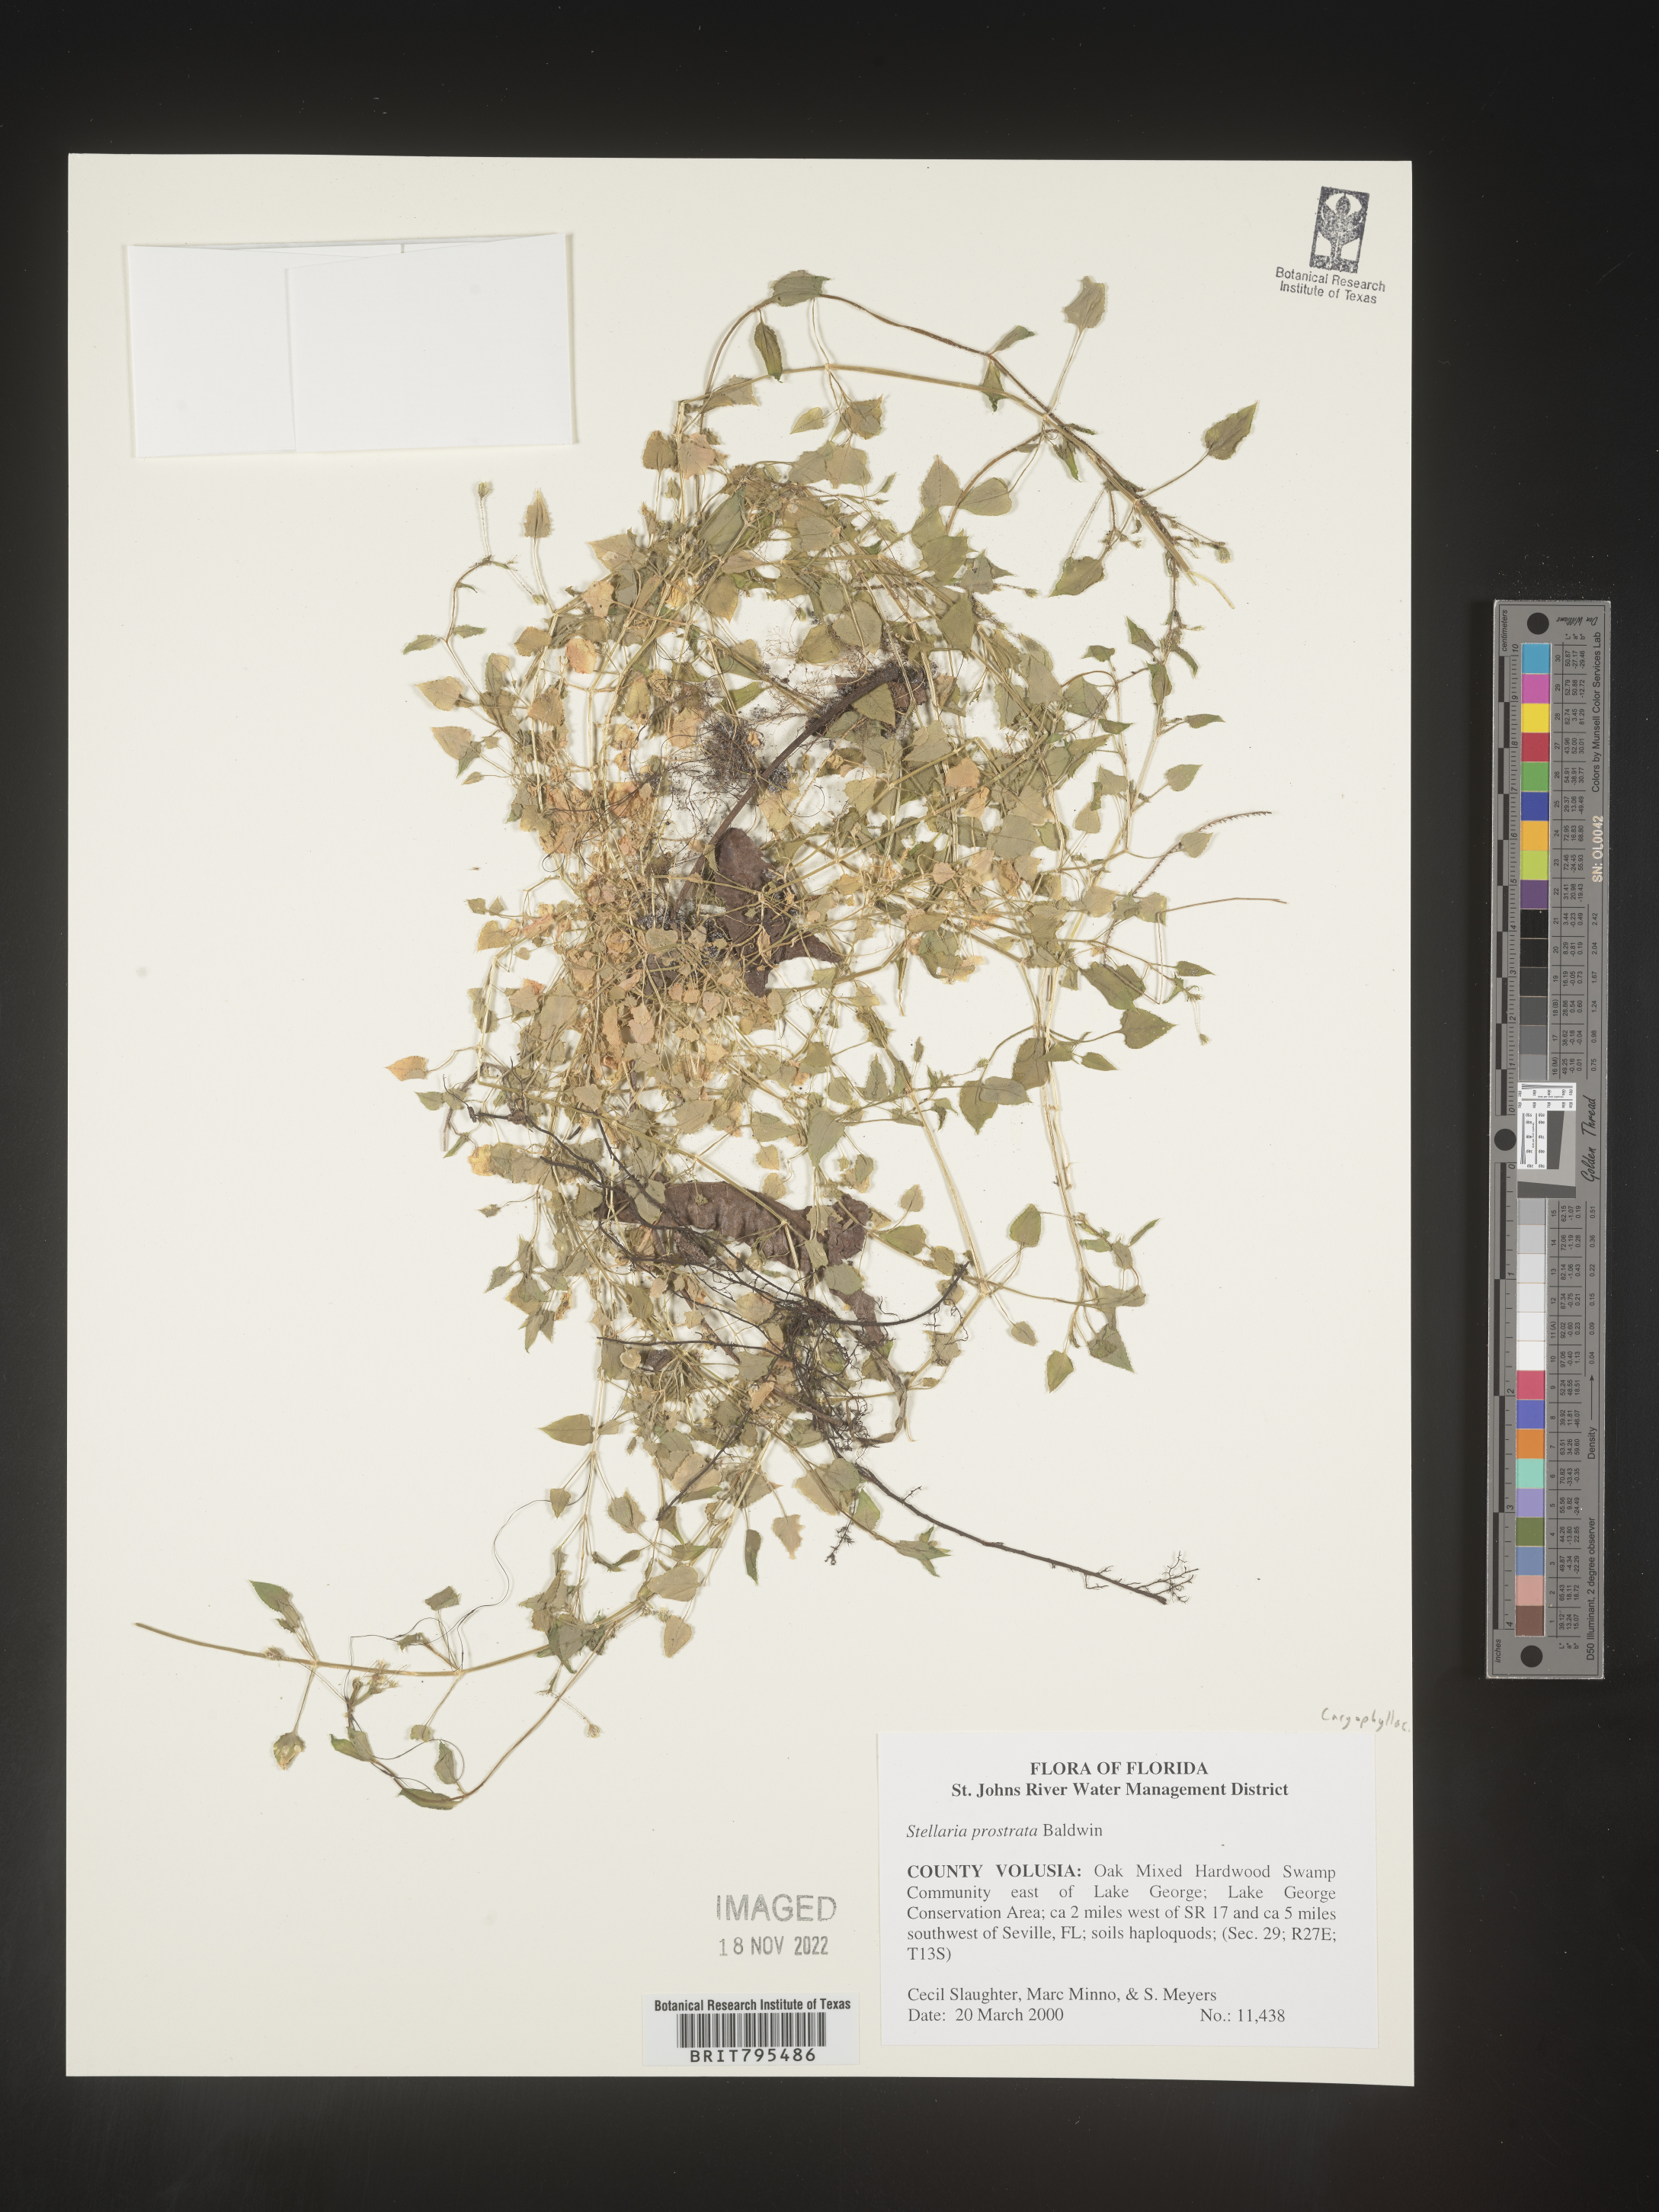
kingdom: Plantae
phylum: Tracheophyta
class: Magnoliopsida
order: Caryophyllales
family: Caryophyllaceae
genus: Stellaria
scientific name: Stellaria cuspidata
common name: Mexican chickweed
